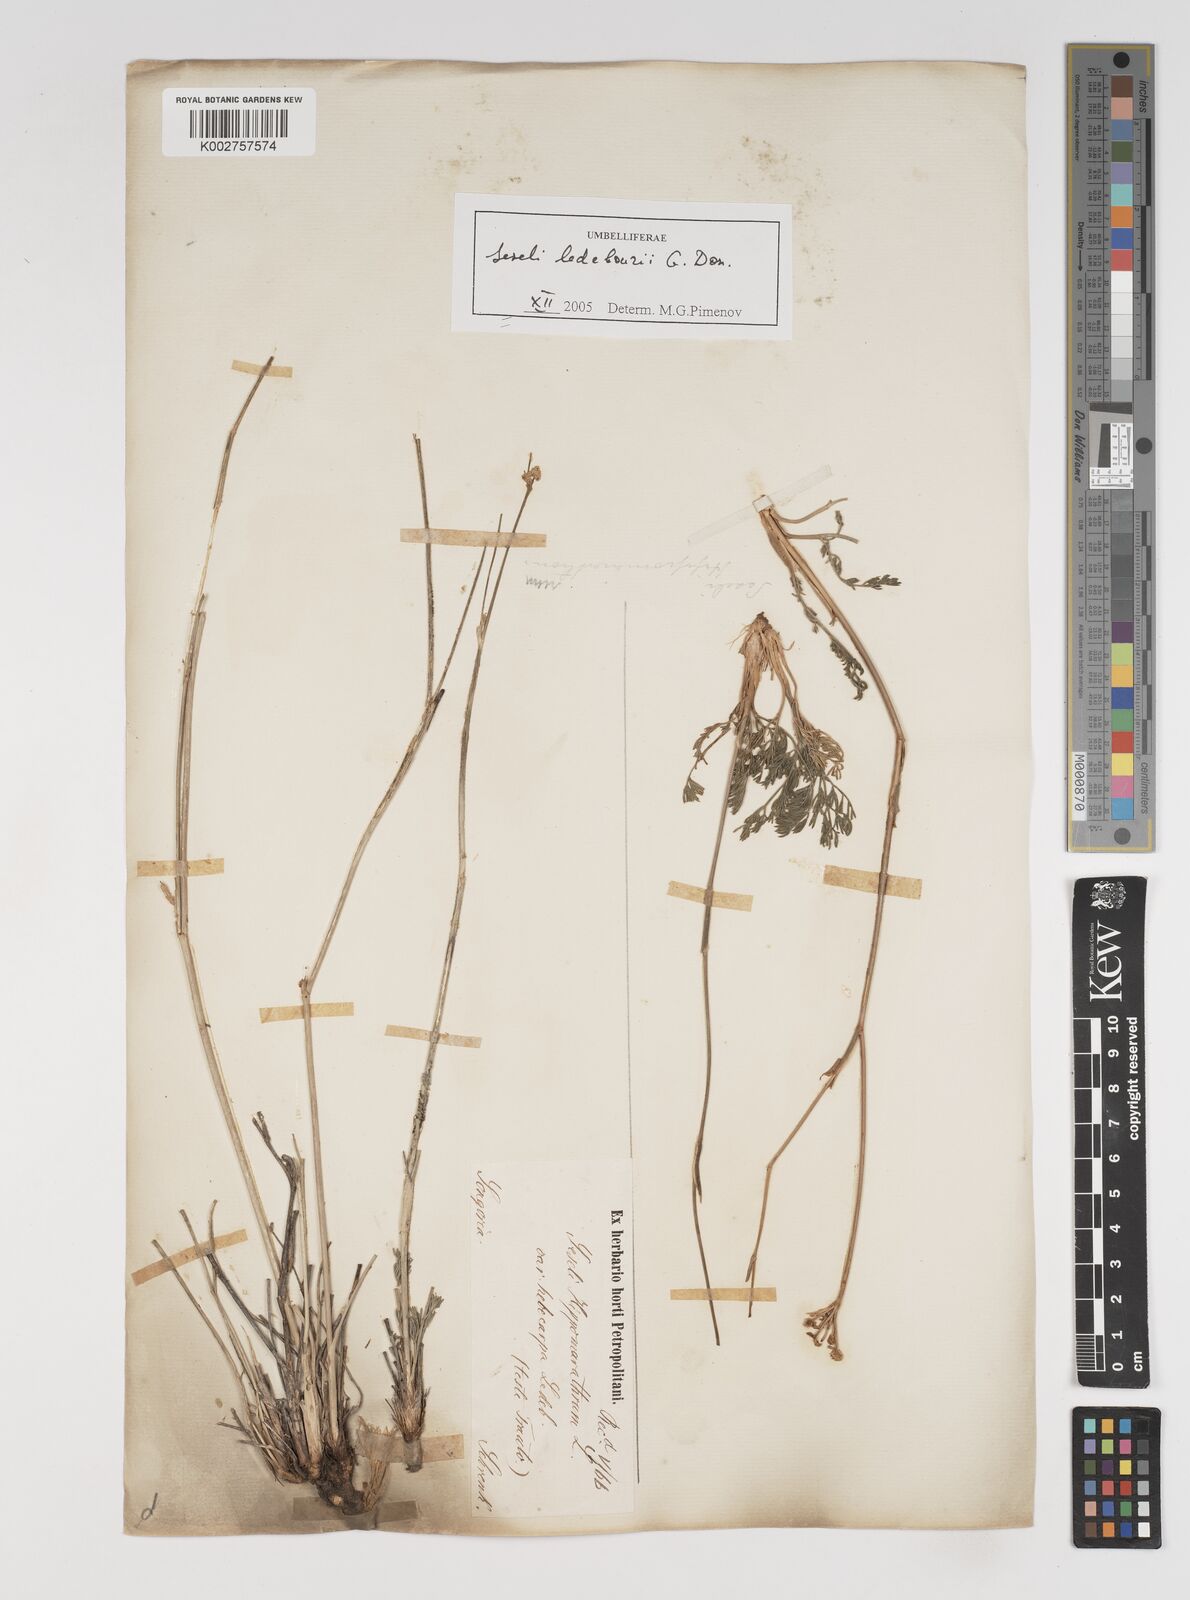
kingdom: Plantae
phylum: Tracheophyta
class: Magnoliopsida
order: Apiales
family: Apiaceae
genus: Hippomarathrum
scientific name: Hippomarathrum ledebourii
